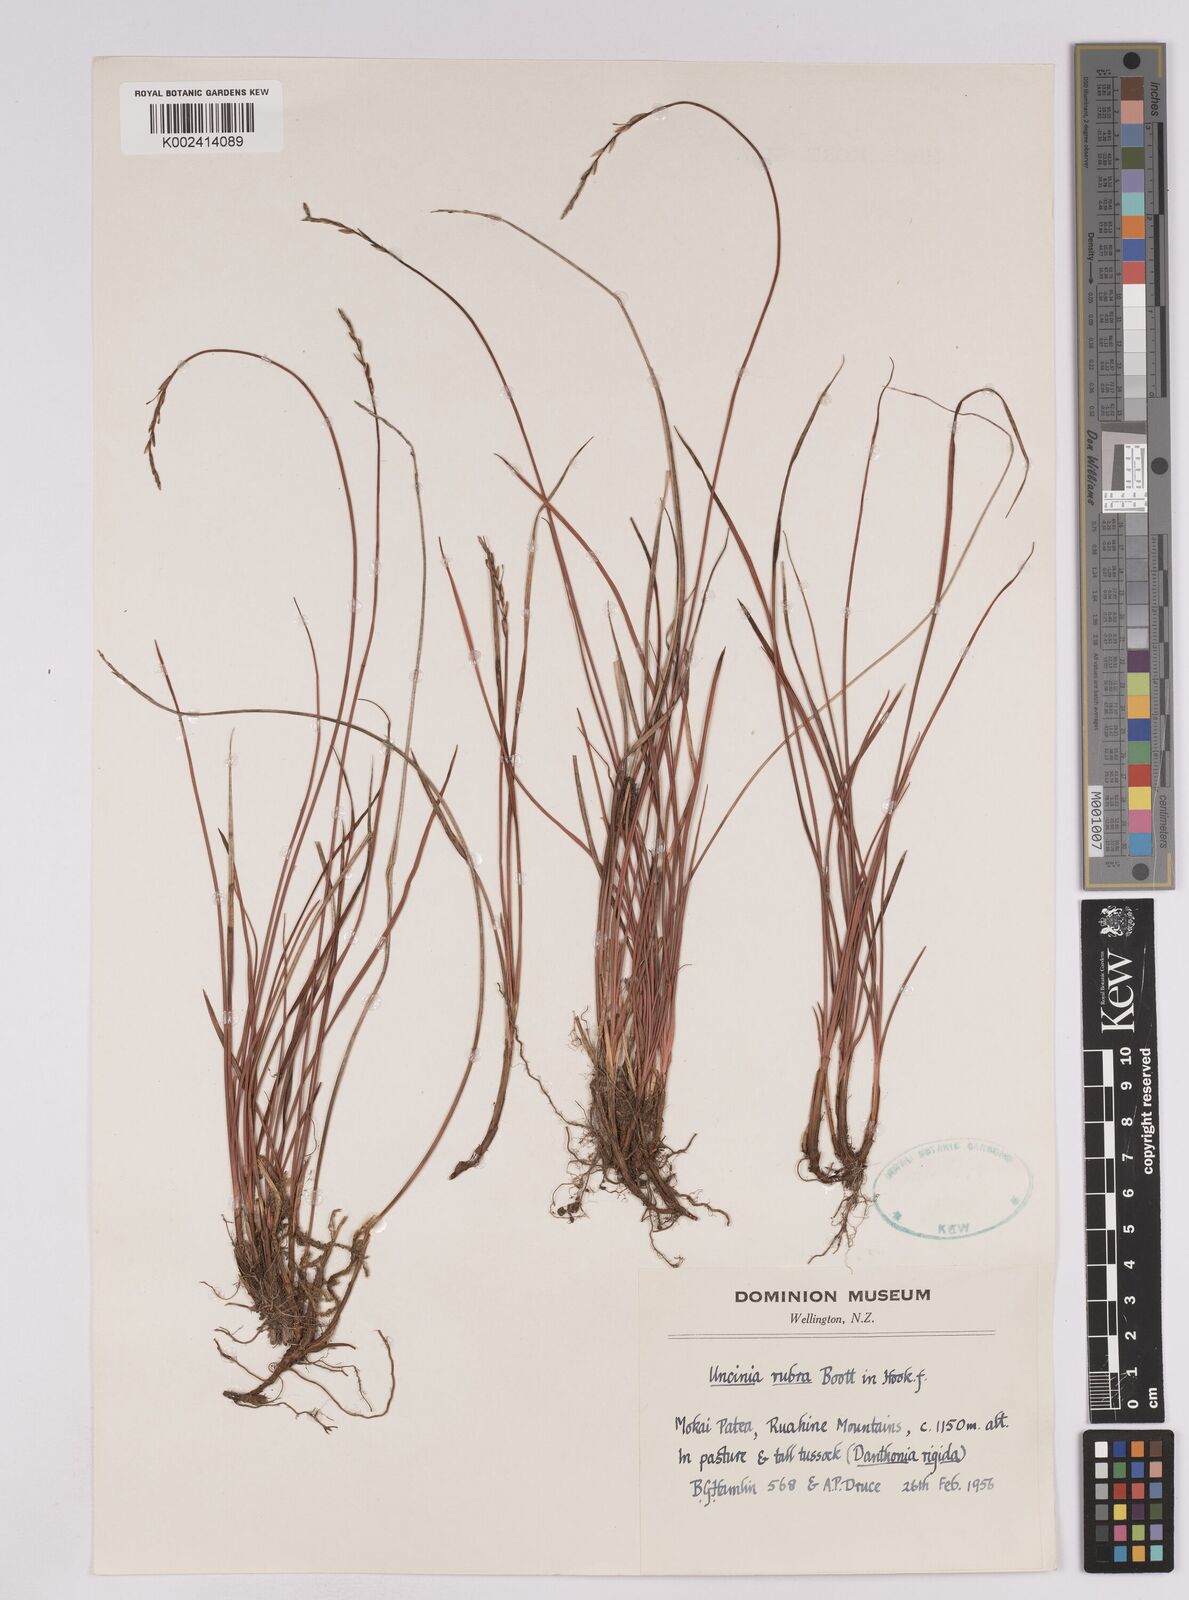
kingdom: Plantae
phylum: Tracheophyta
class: Liliopsida
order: Poales
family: Cyperaceae
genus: Carex
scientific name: Carex punicea
